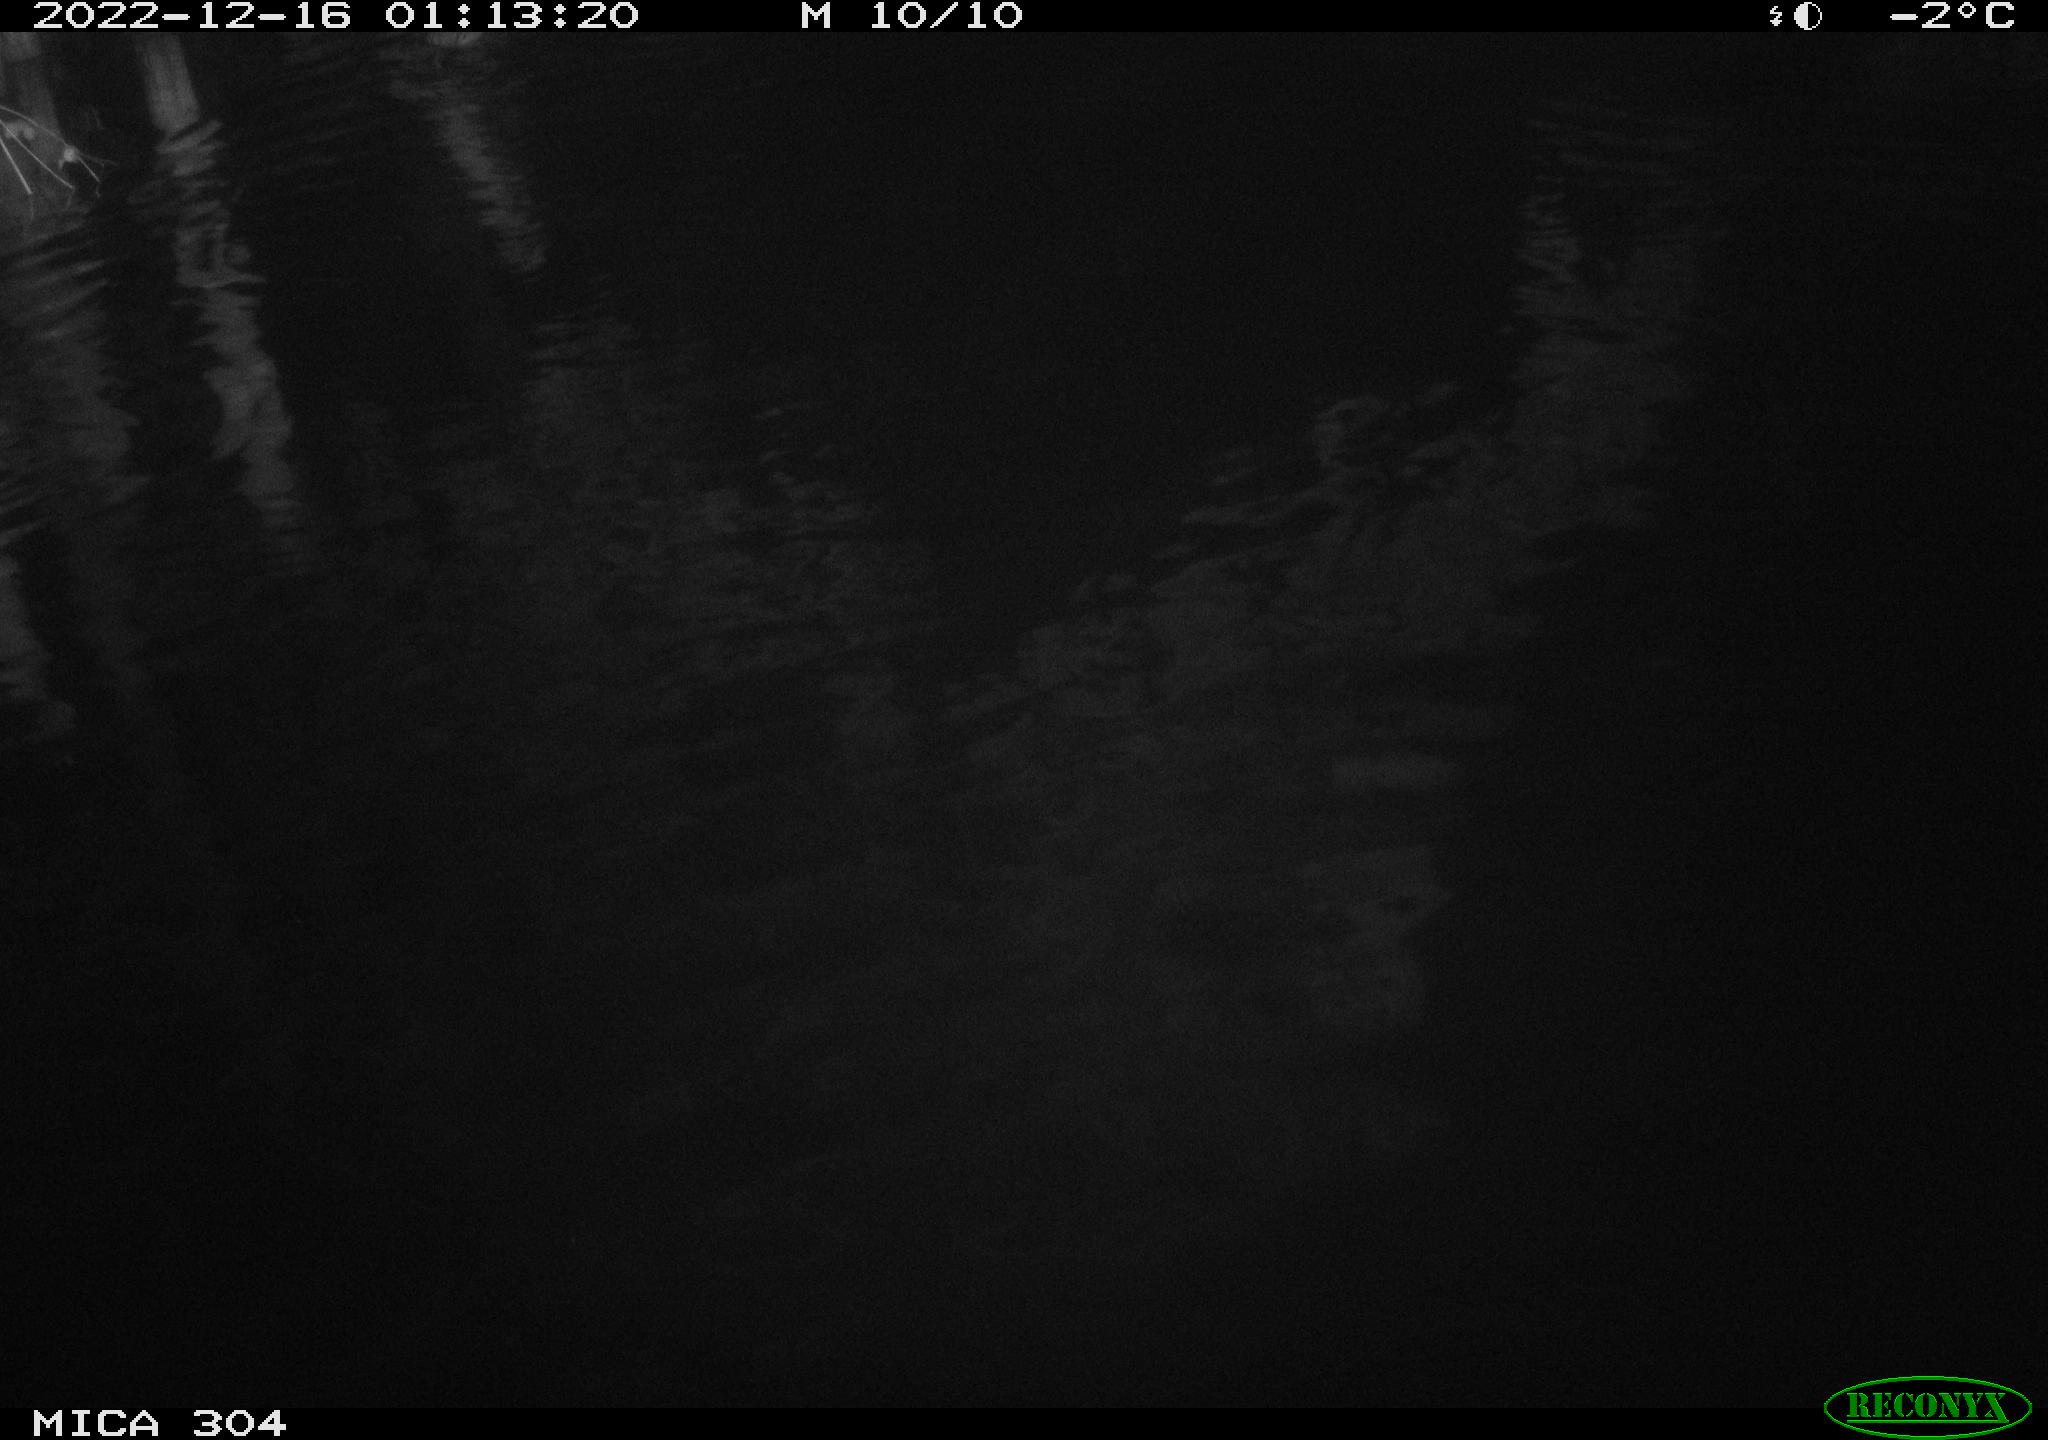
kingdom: Animalia
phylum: Chordata
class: Mammalia
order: Rodentia
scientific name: Rodentia
